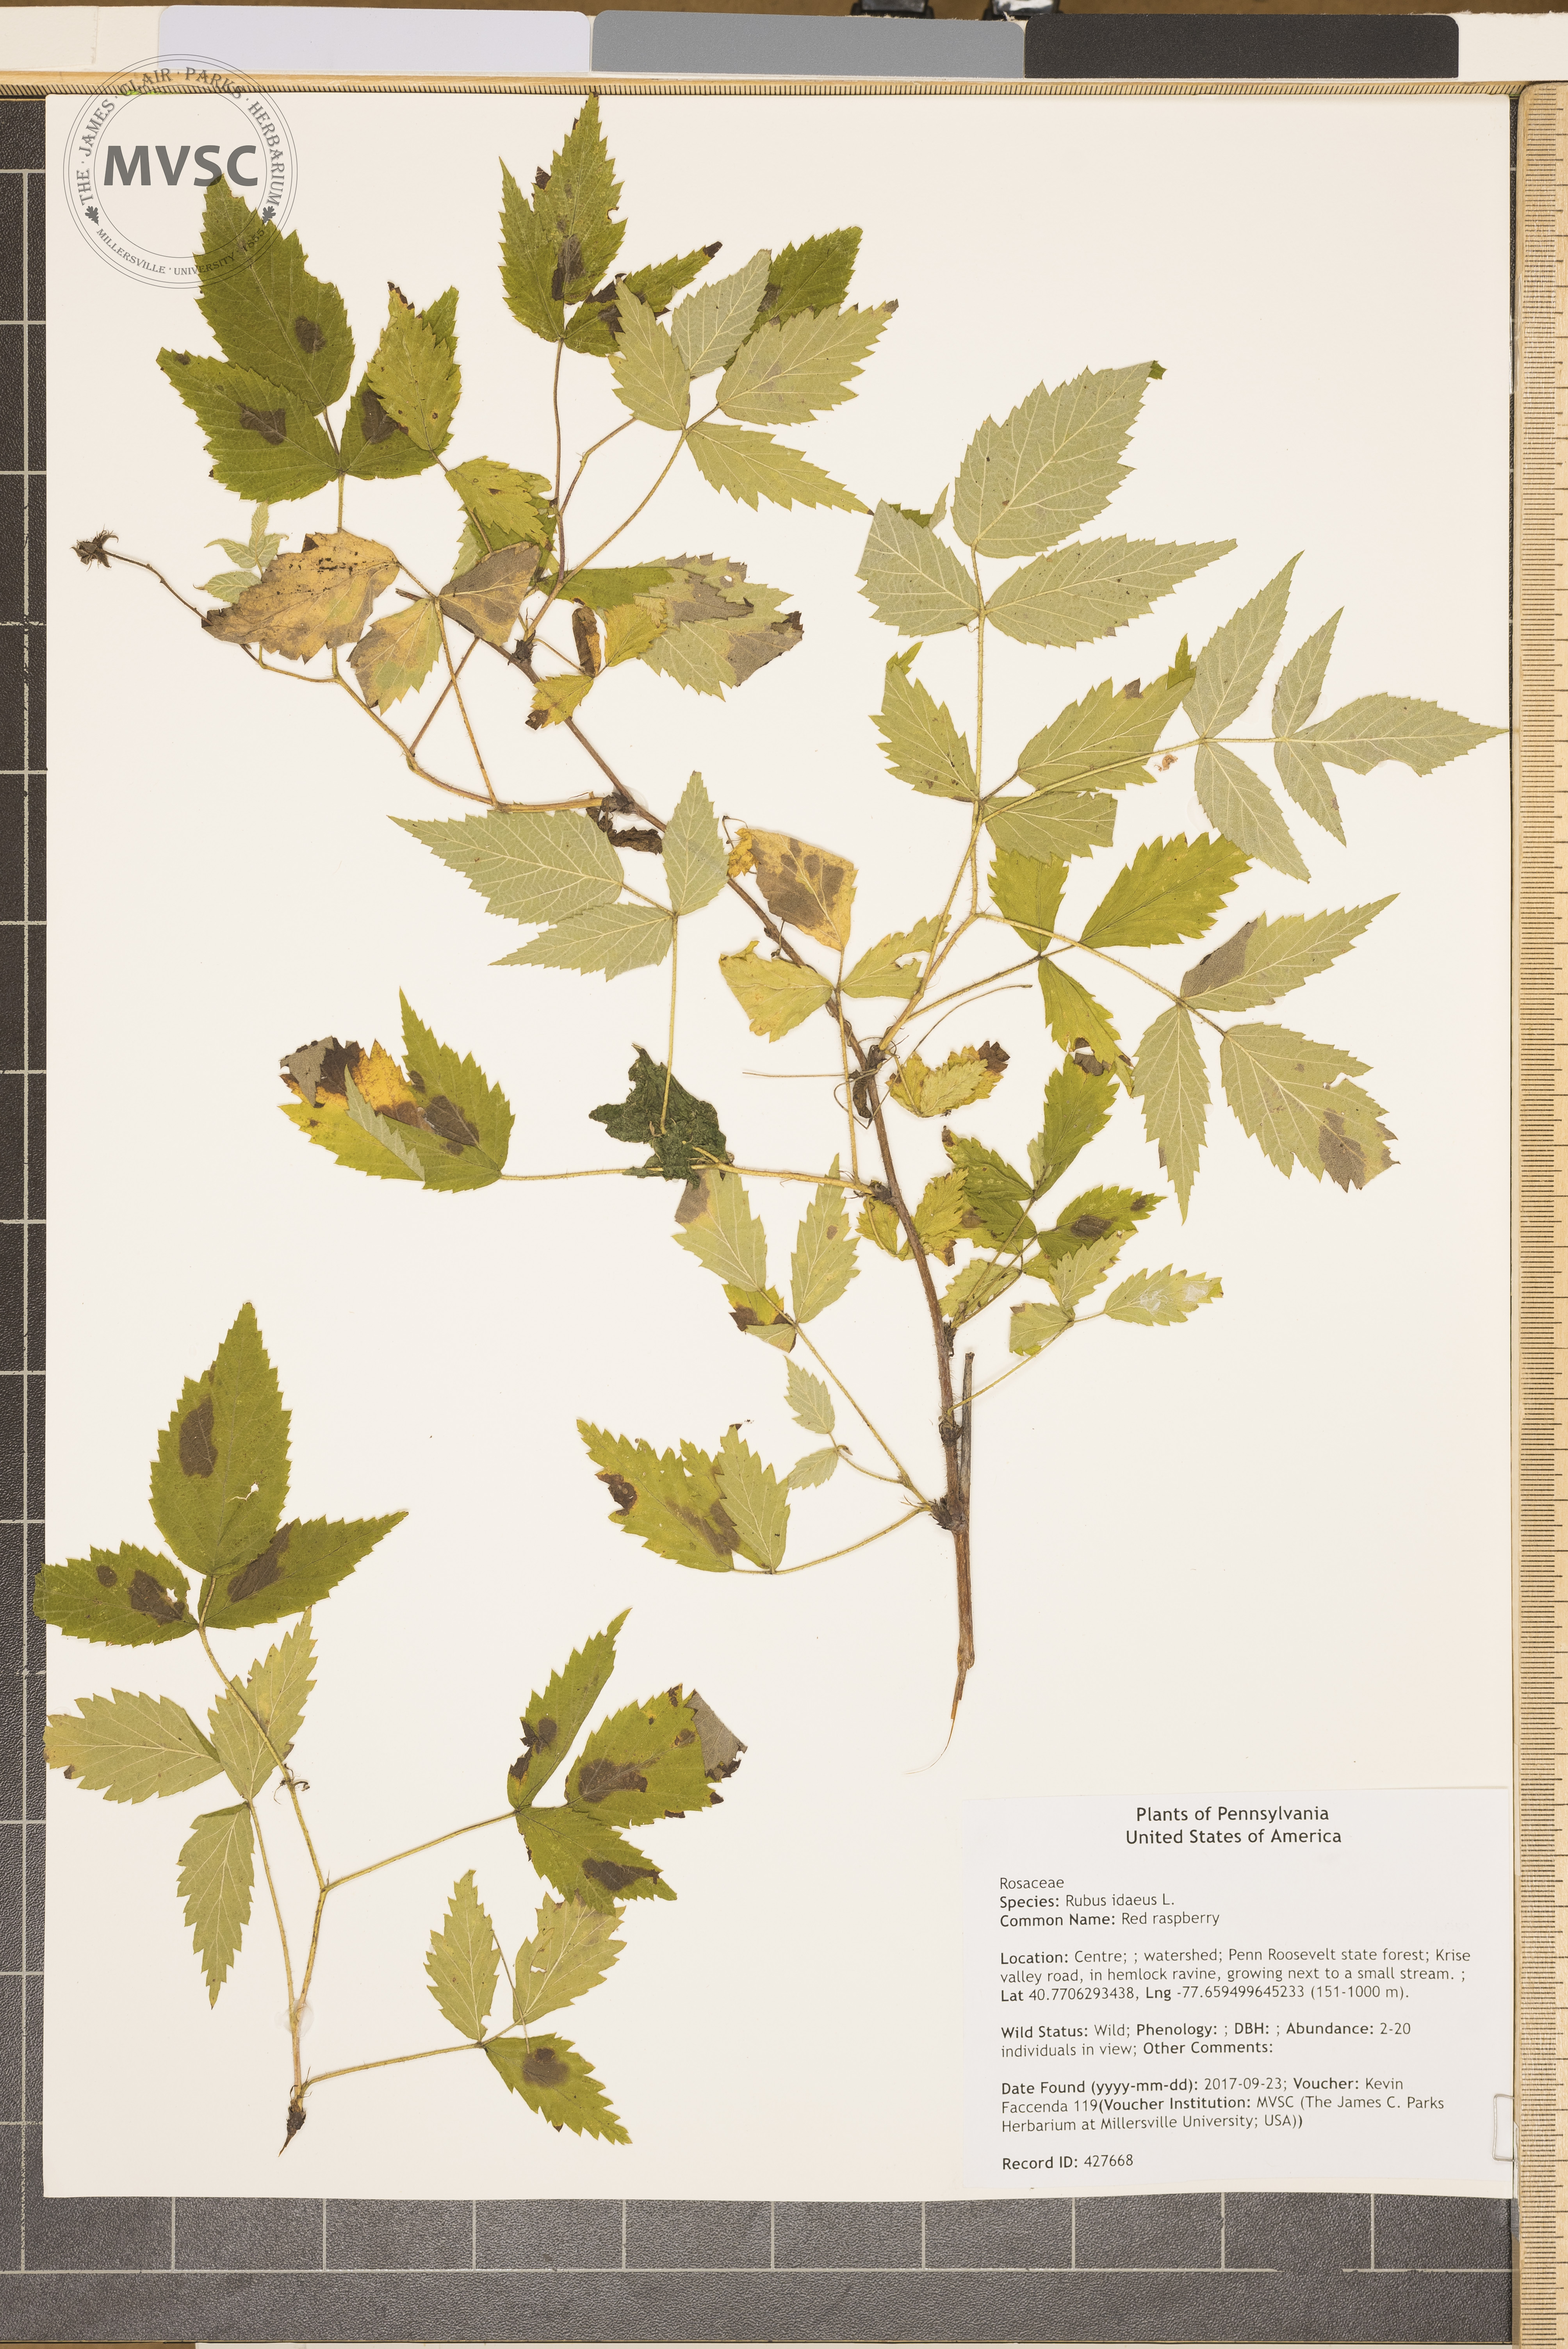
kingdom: Plantae
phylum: Tracheophyta
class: Magnoliopsida
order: Rosales
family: Rosaceae
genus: Rubus
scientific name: Rubus idaeus
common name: Red raspberry
